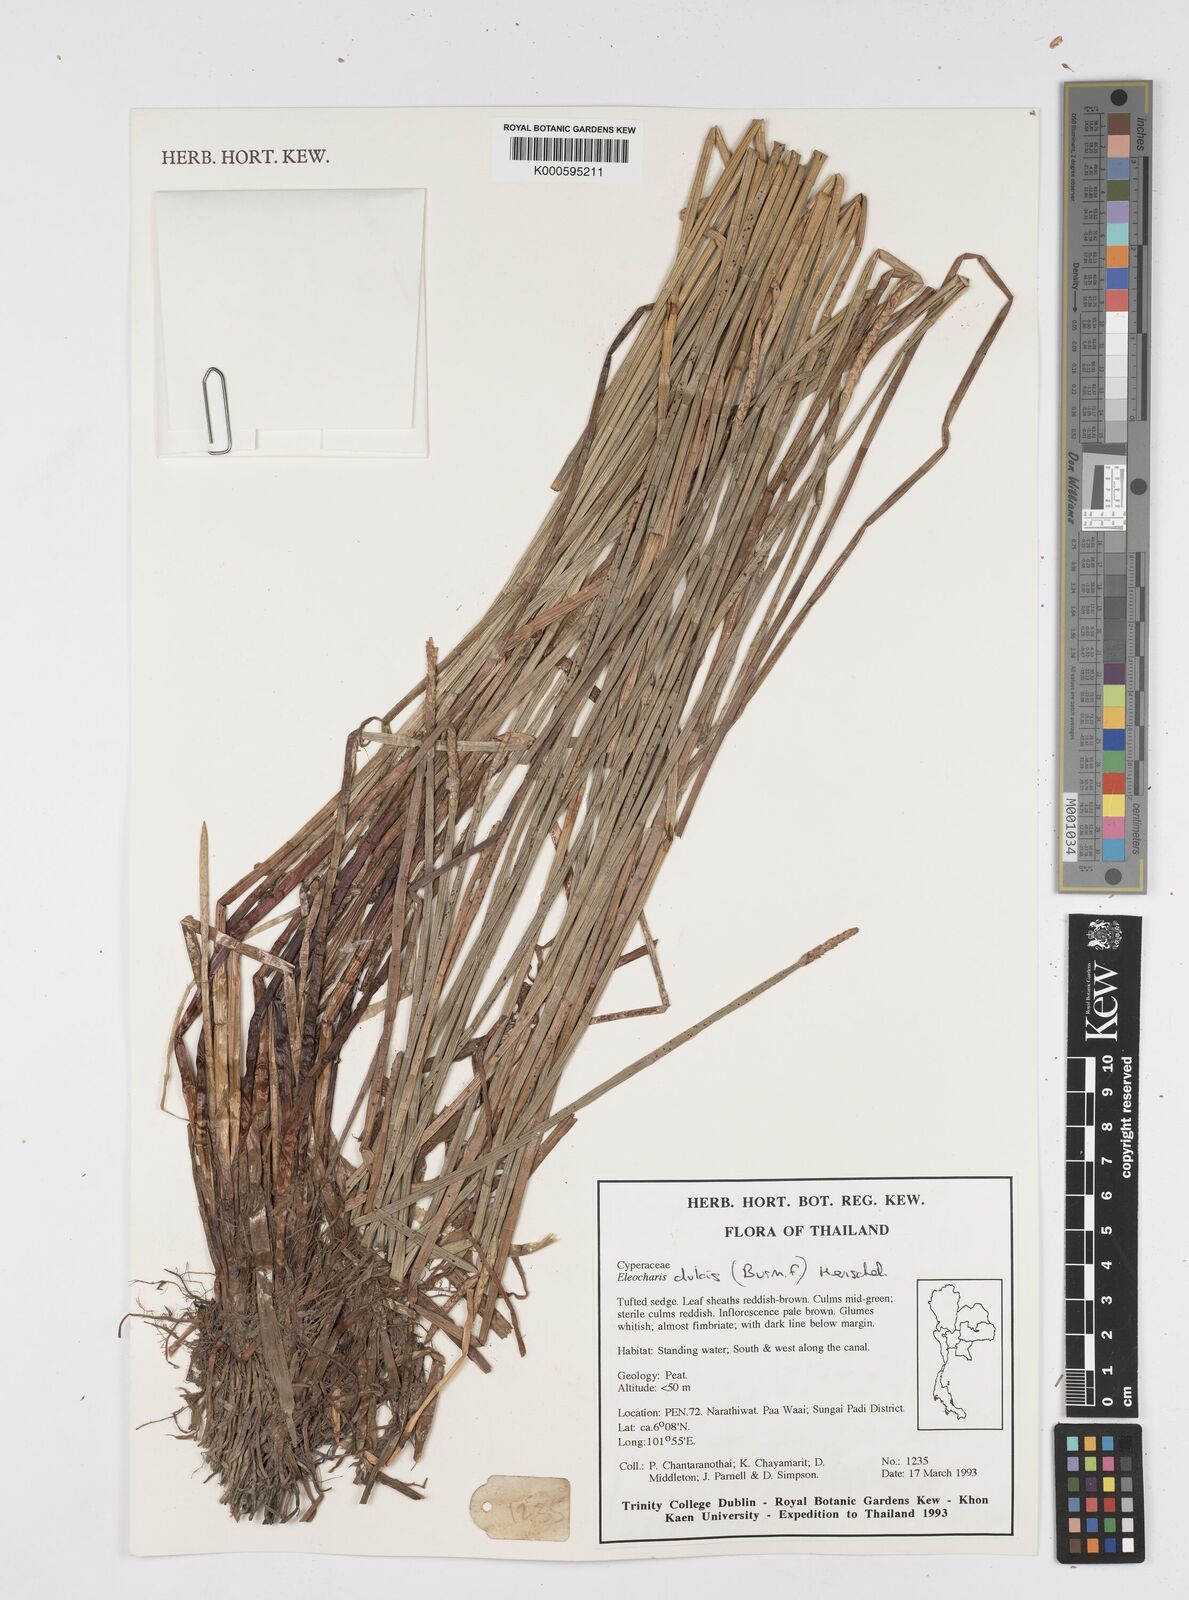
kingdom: Plantae
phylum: Tracheophyta
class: Liliopsida
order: Poales
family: Cyperaceae
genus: Eleocharis
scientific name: Eleocharis dulcis
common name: Chinese water chestnut
